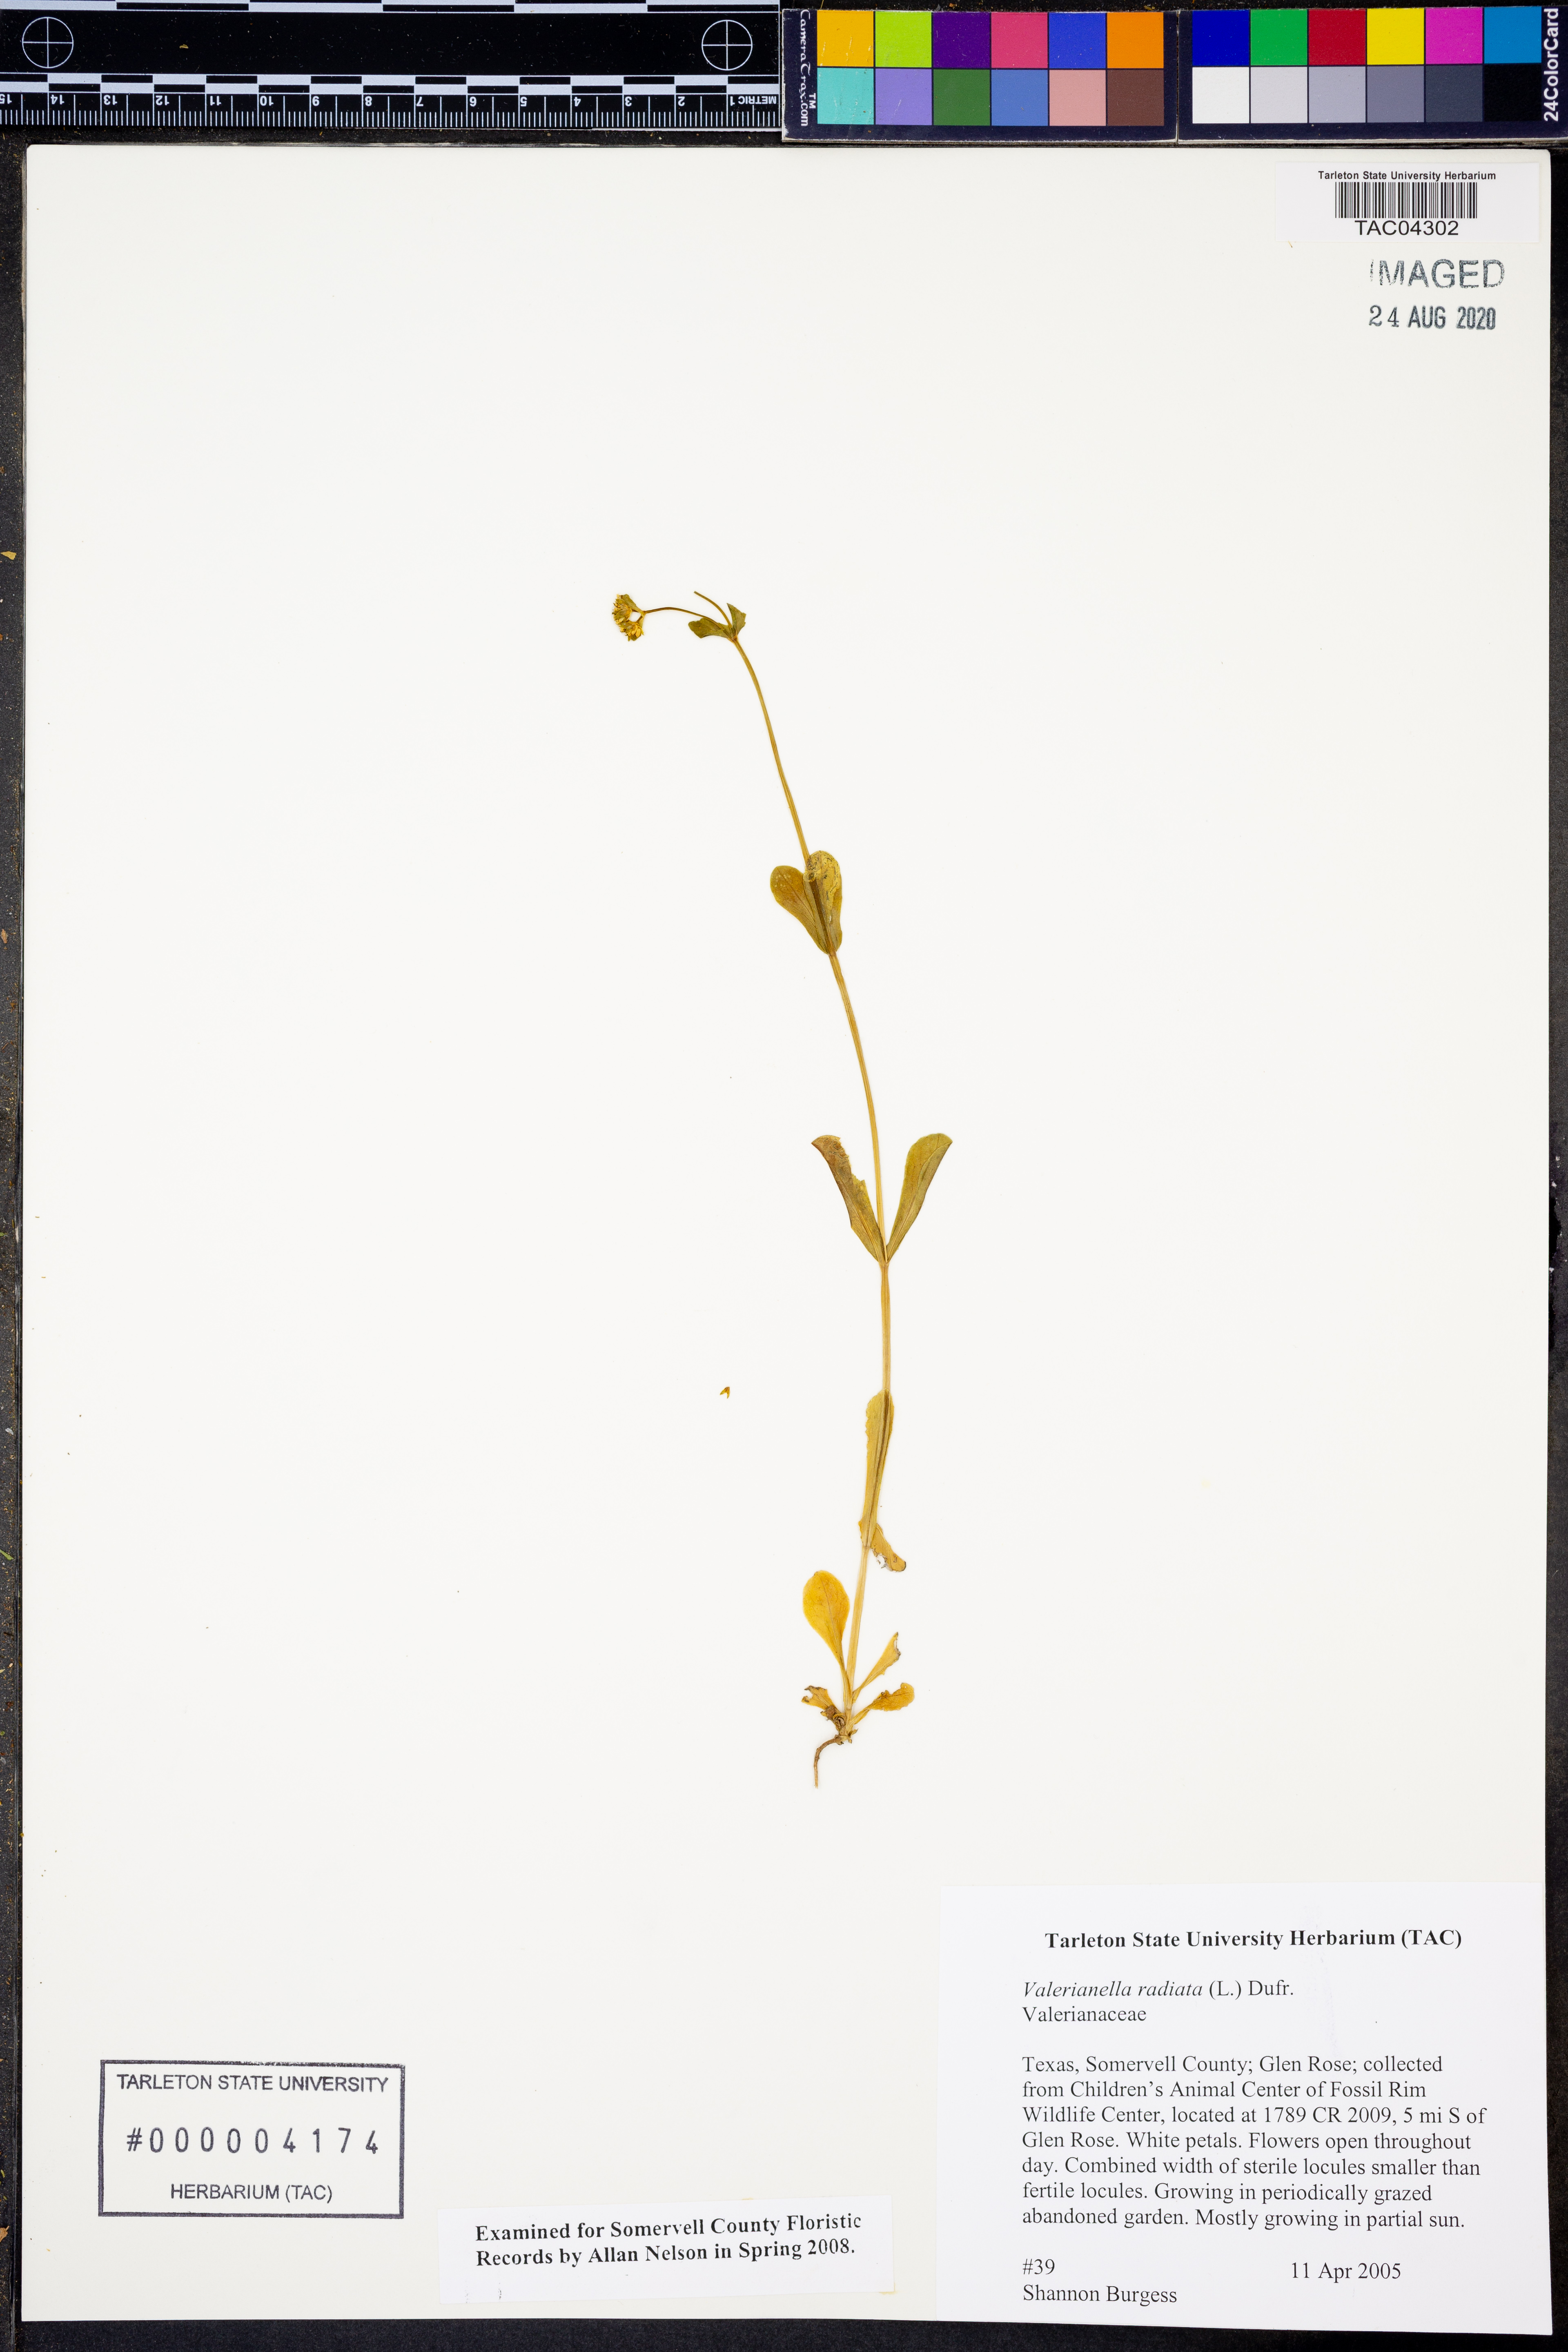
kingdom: Plantae
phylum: Tracheophyta
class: Magnoliopsida
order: Dipsacales
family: Caprifoliaceae
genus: Valerianella
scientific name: Valerianella radiata
